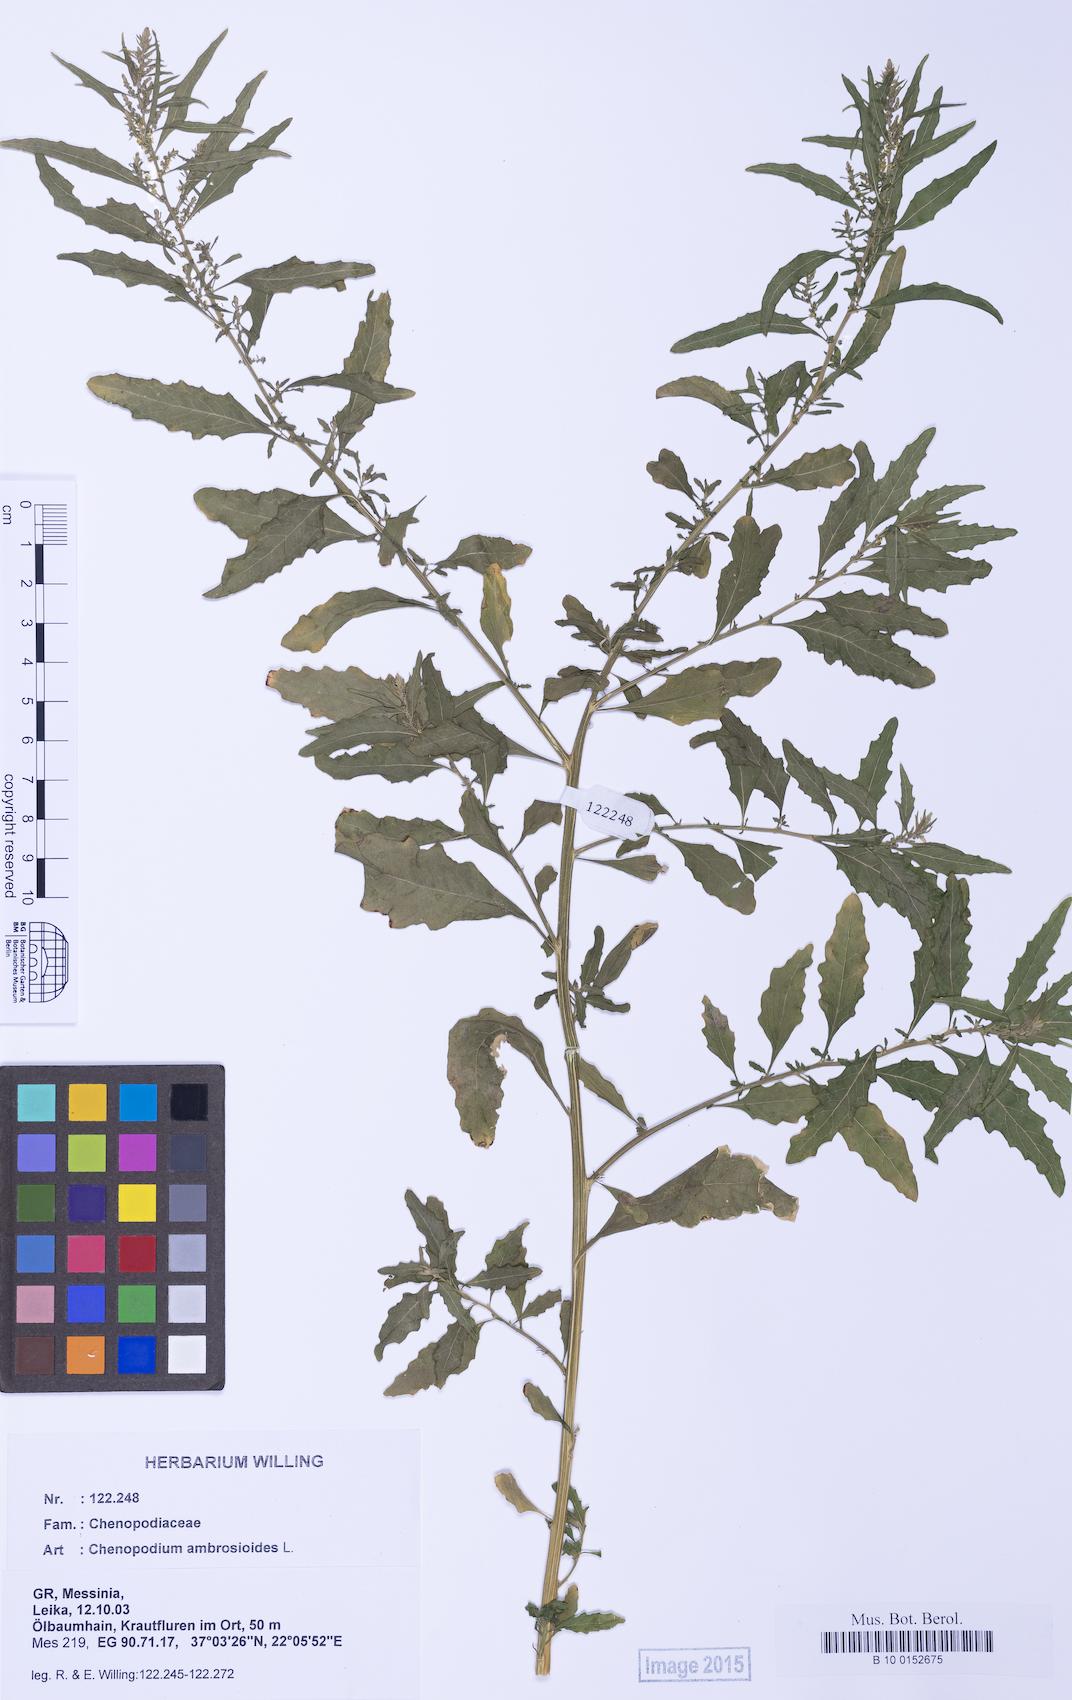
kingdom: Plantae
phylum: Tracheophyta
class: Magnoliopsida
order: Caryophyllales
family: Amaranthaceae
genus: Dysphania
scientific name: Dysphania ambrosioides
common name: Wormseed
